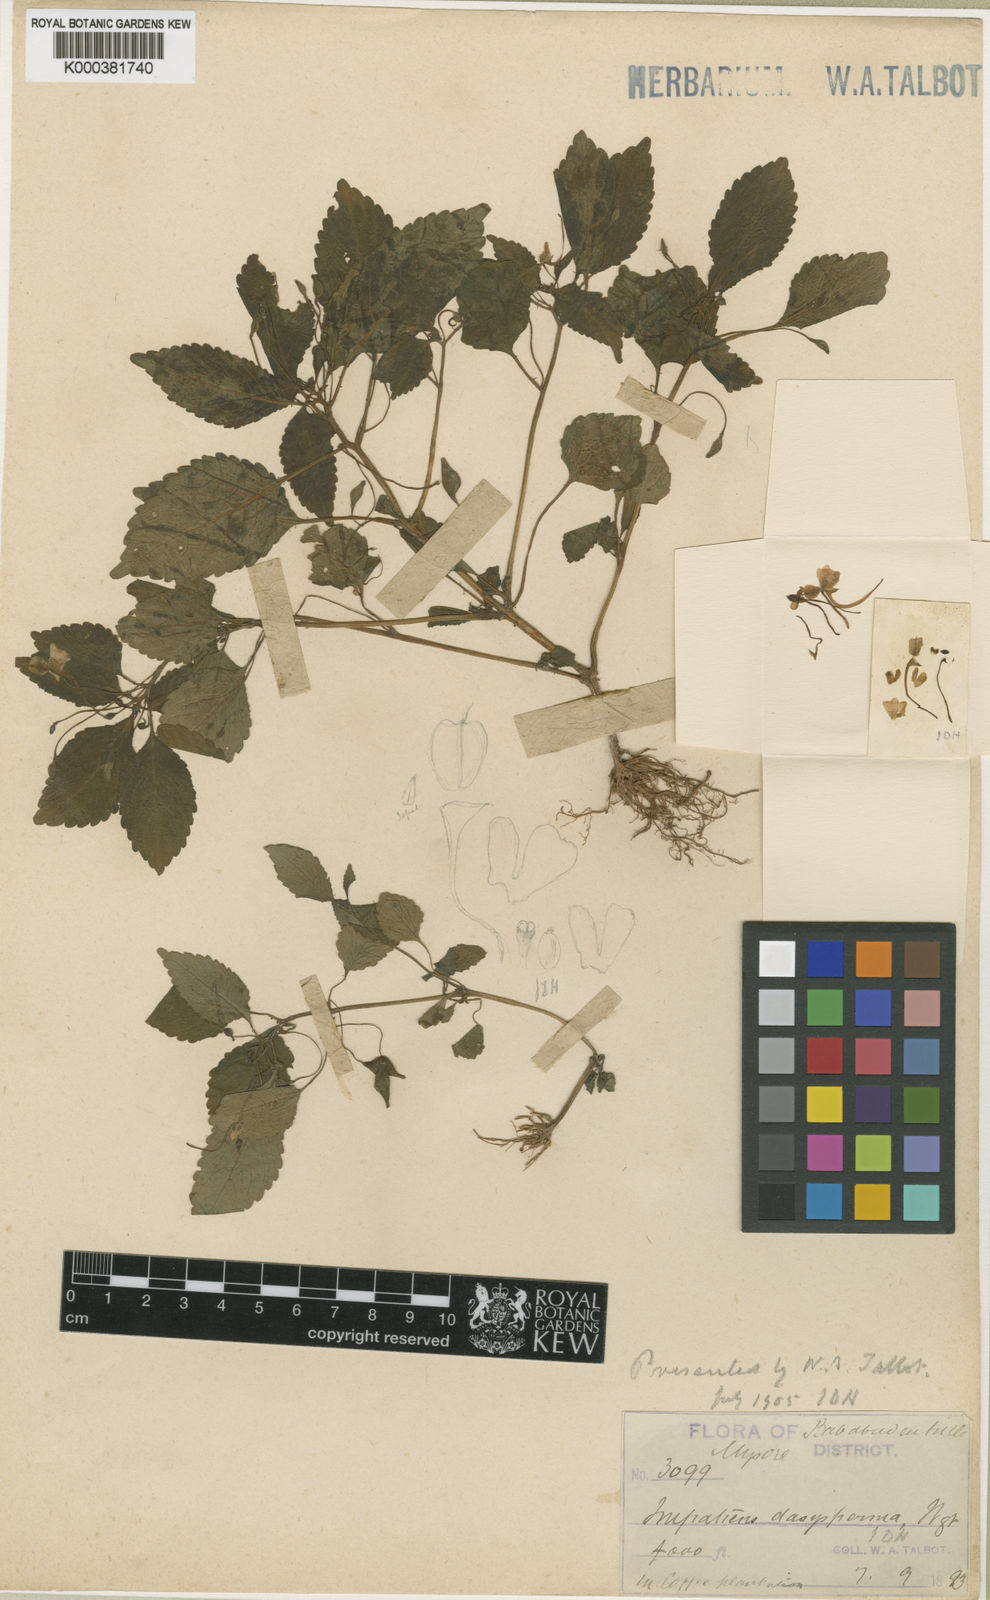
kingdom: Plantae
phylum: Tracheophyta
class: Magnoliopsida
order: Ericales
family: Balsaminaceae
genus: Impatiens
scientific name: Impatiens dasysperma
